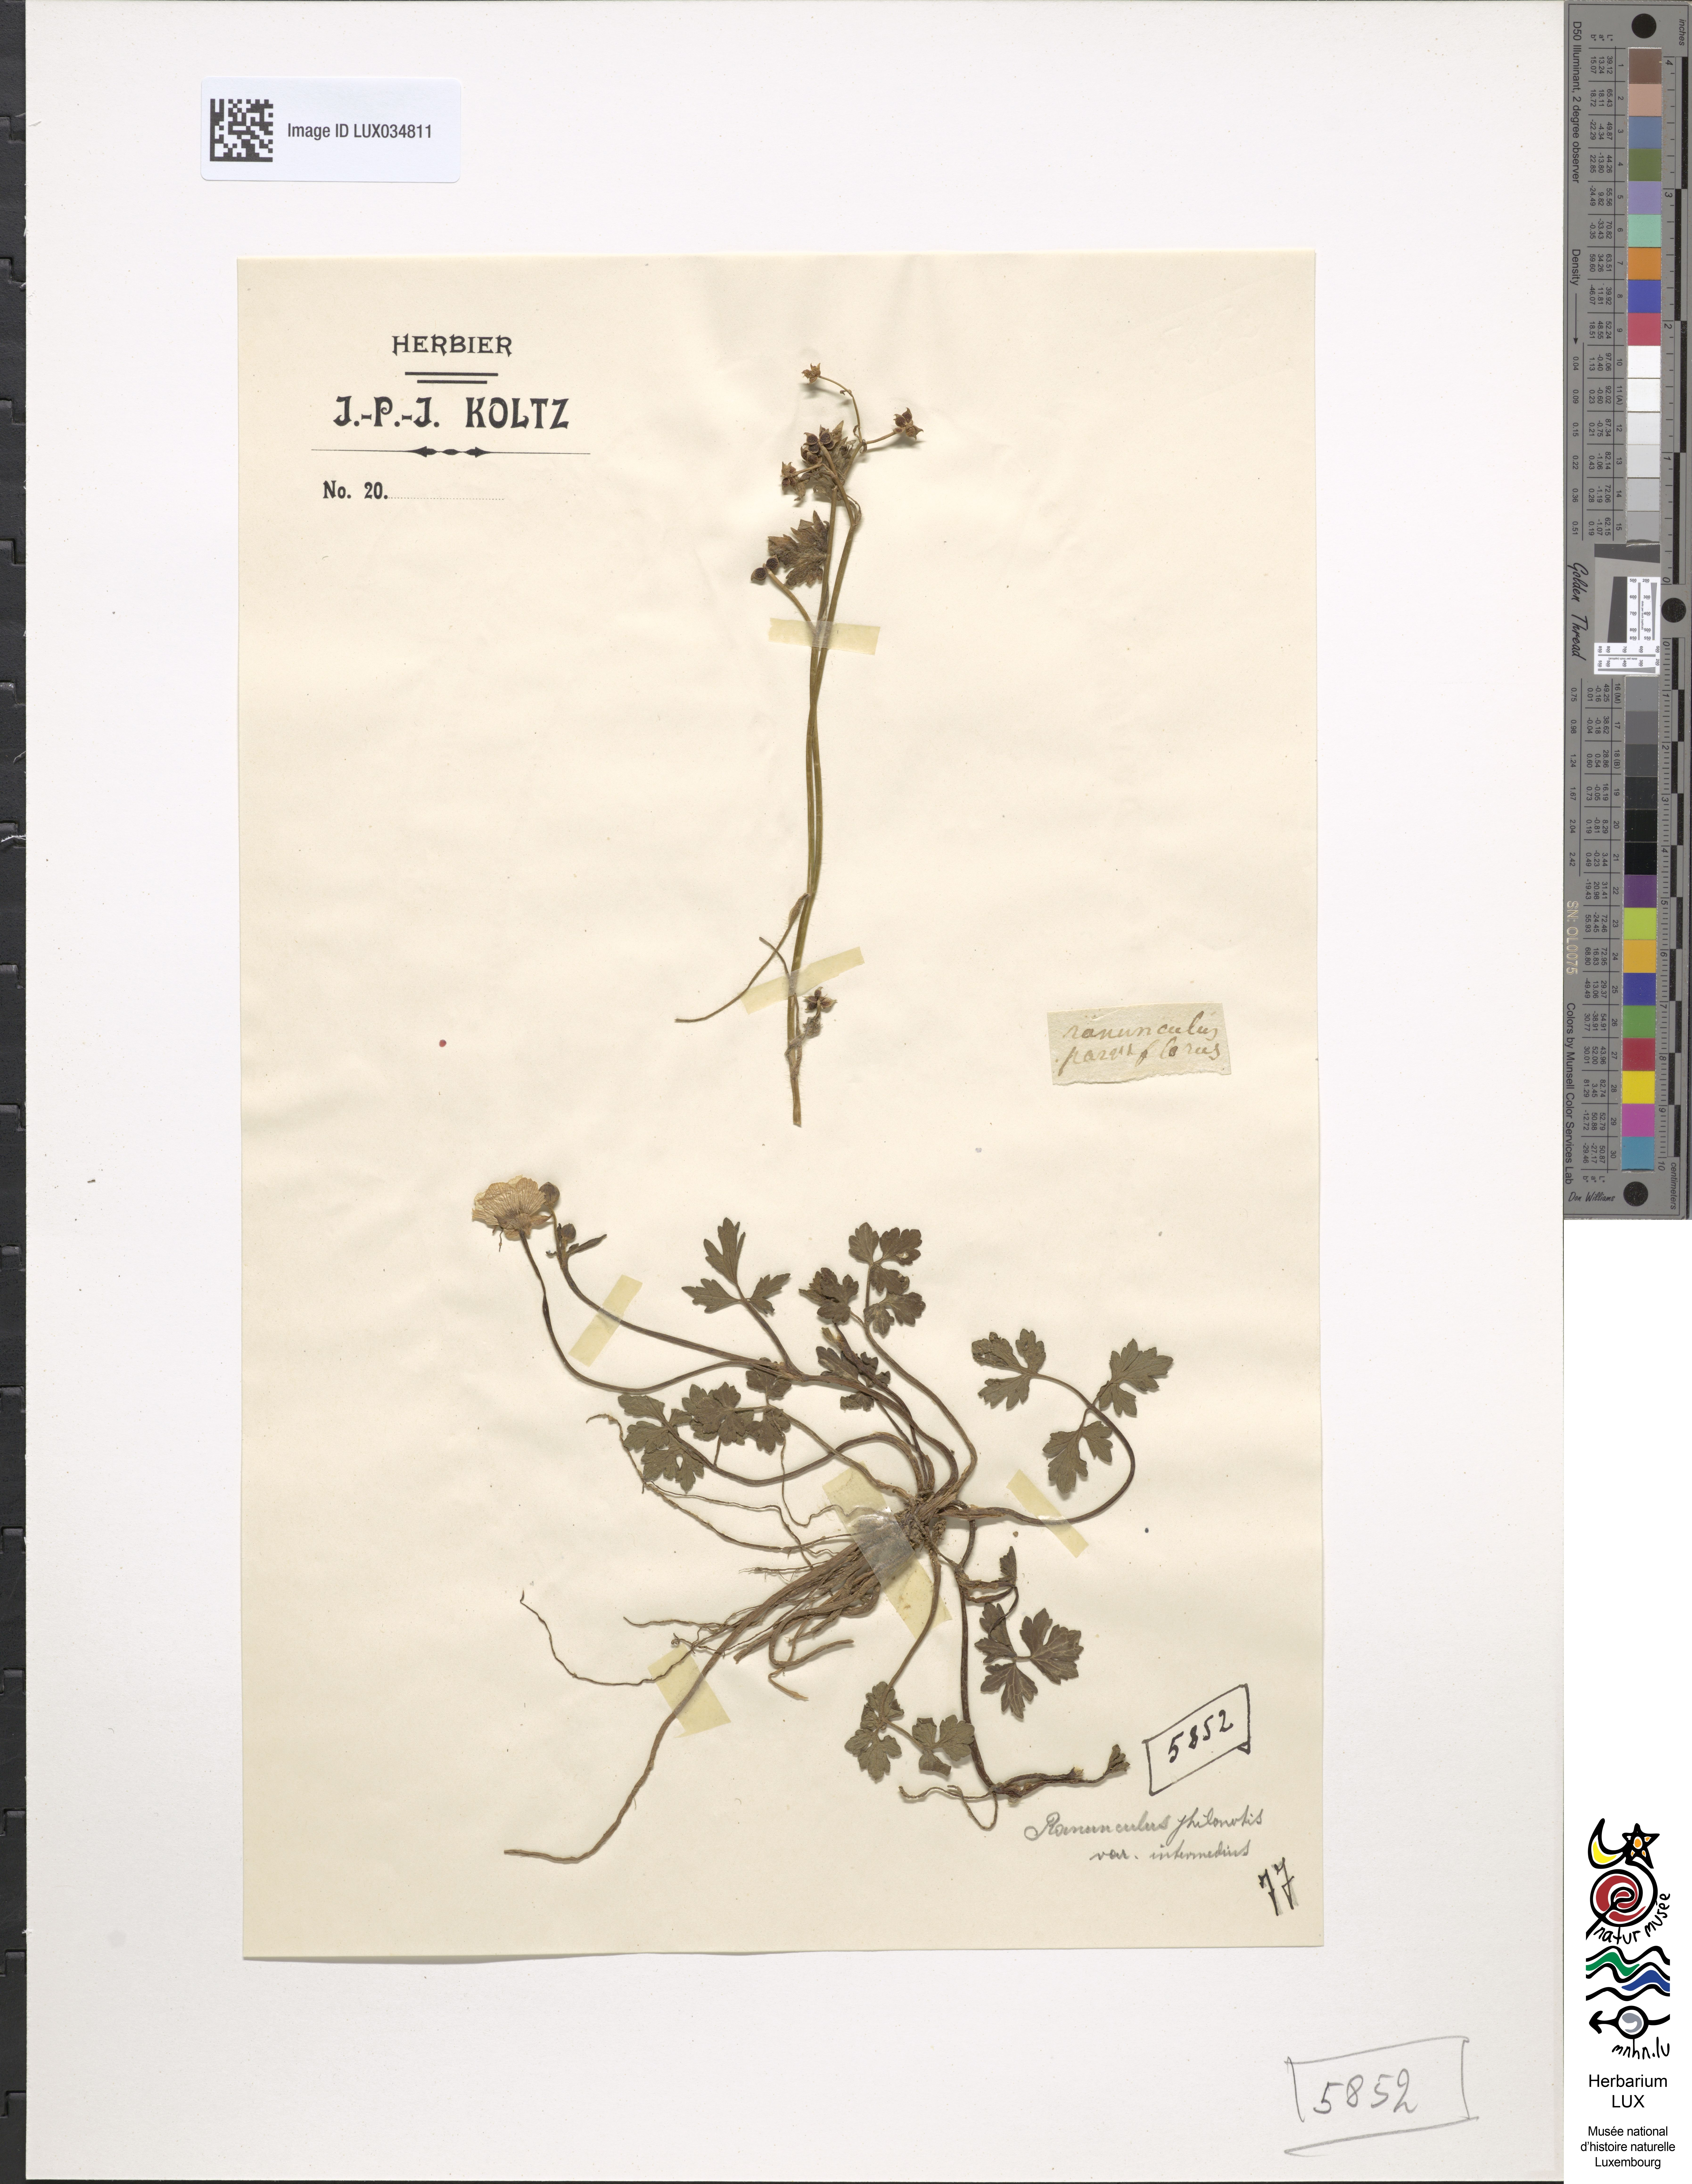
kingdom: Plantae
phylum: Tracheophyta
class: Magnoliopsida
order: Ranunculales
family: Ranunculaceae
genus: Ranunculus
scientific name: Ranunculus sardous
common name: Hairy buttercup
